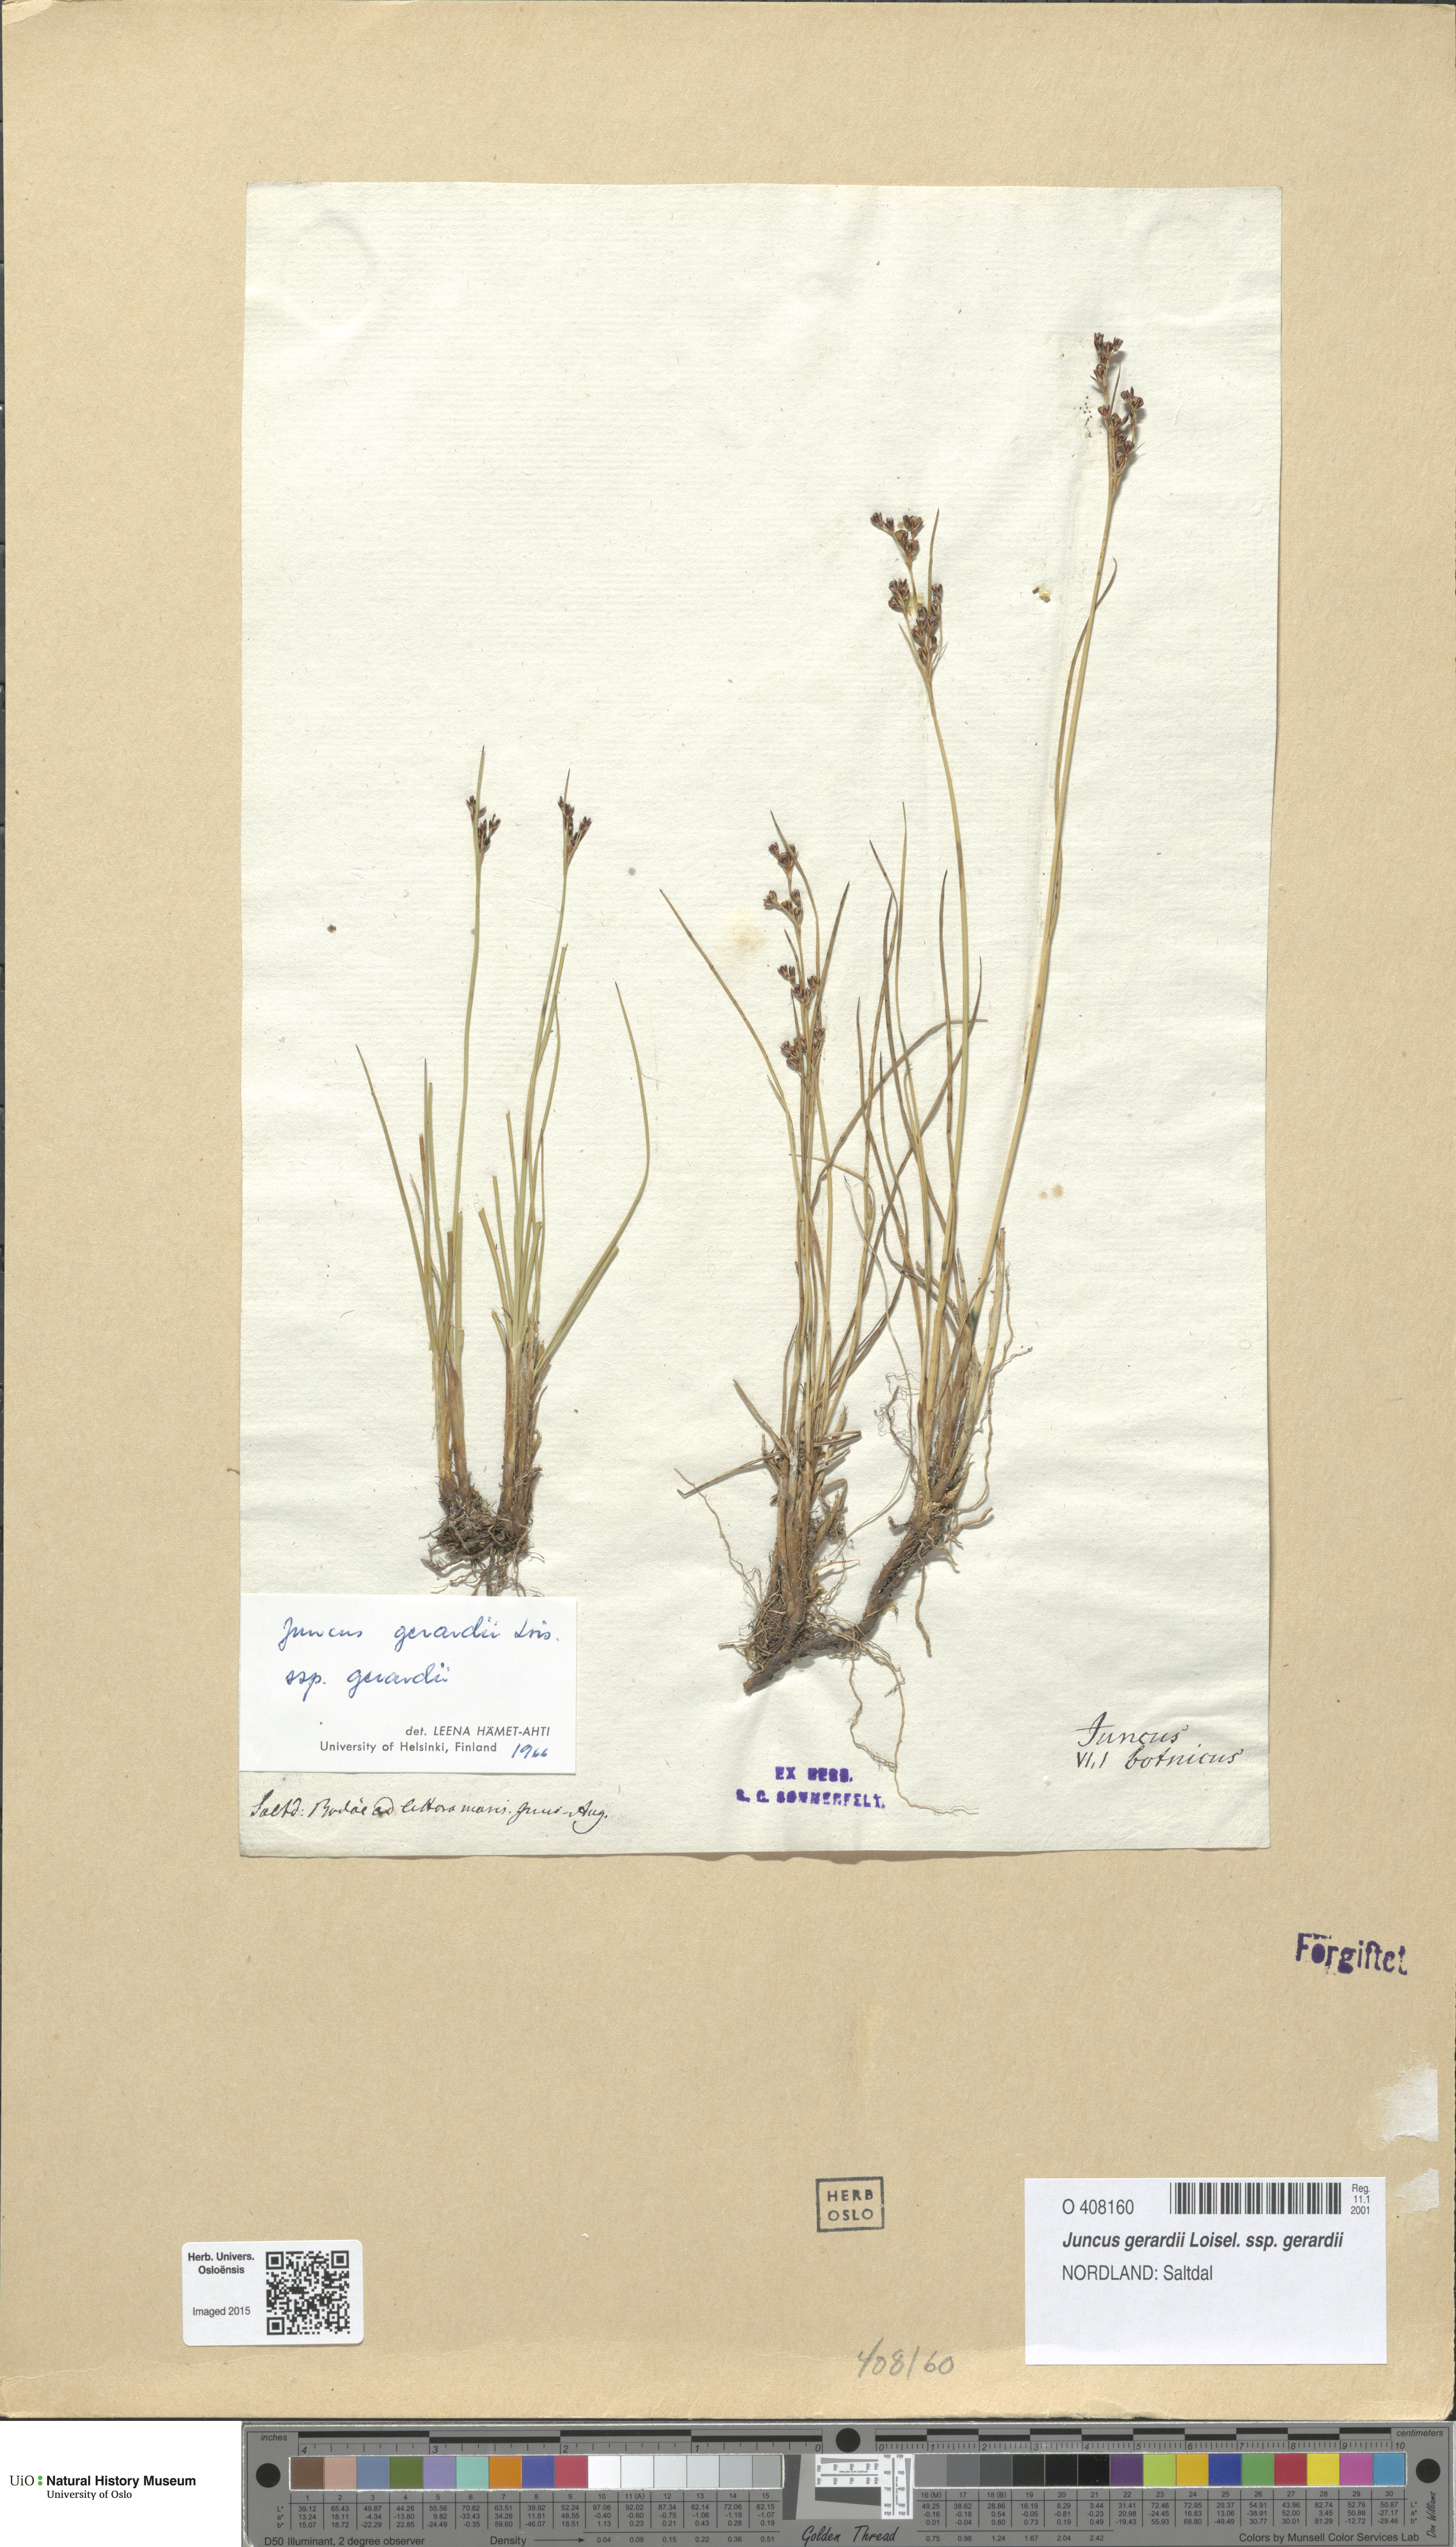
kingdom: Plantae
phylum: Tracheophyta
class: Liliopsida
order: Poales
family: Juncaceae
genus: Juncus
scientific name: Juncus gerardi
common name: Saltmarsh rush
